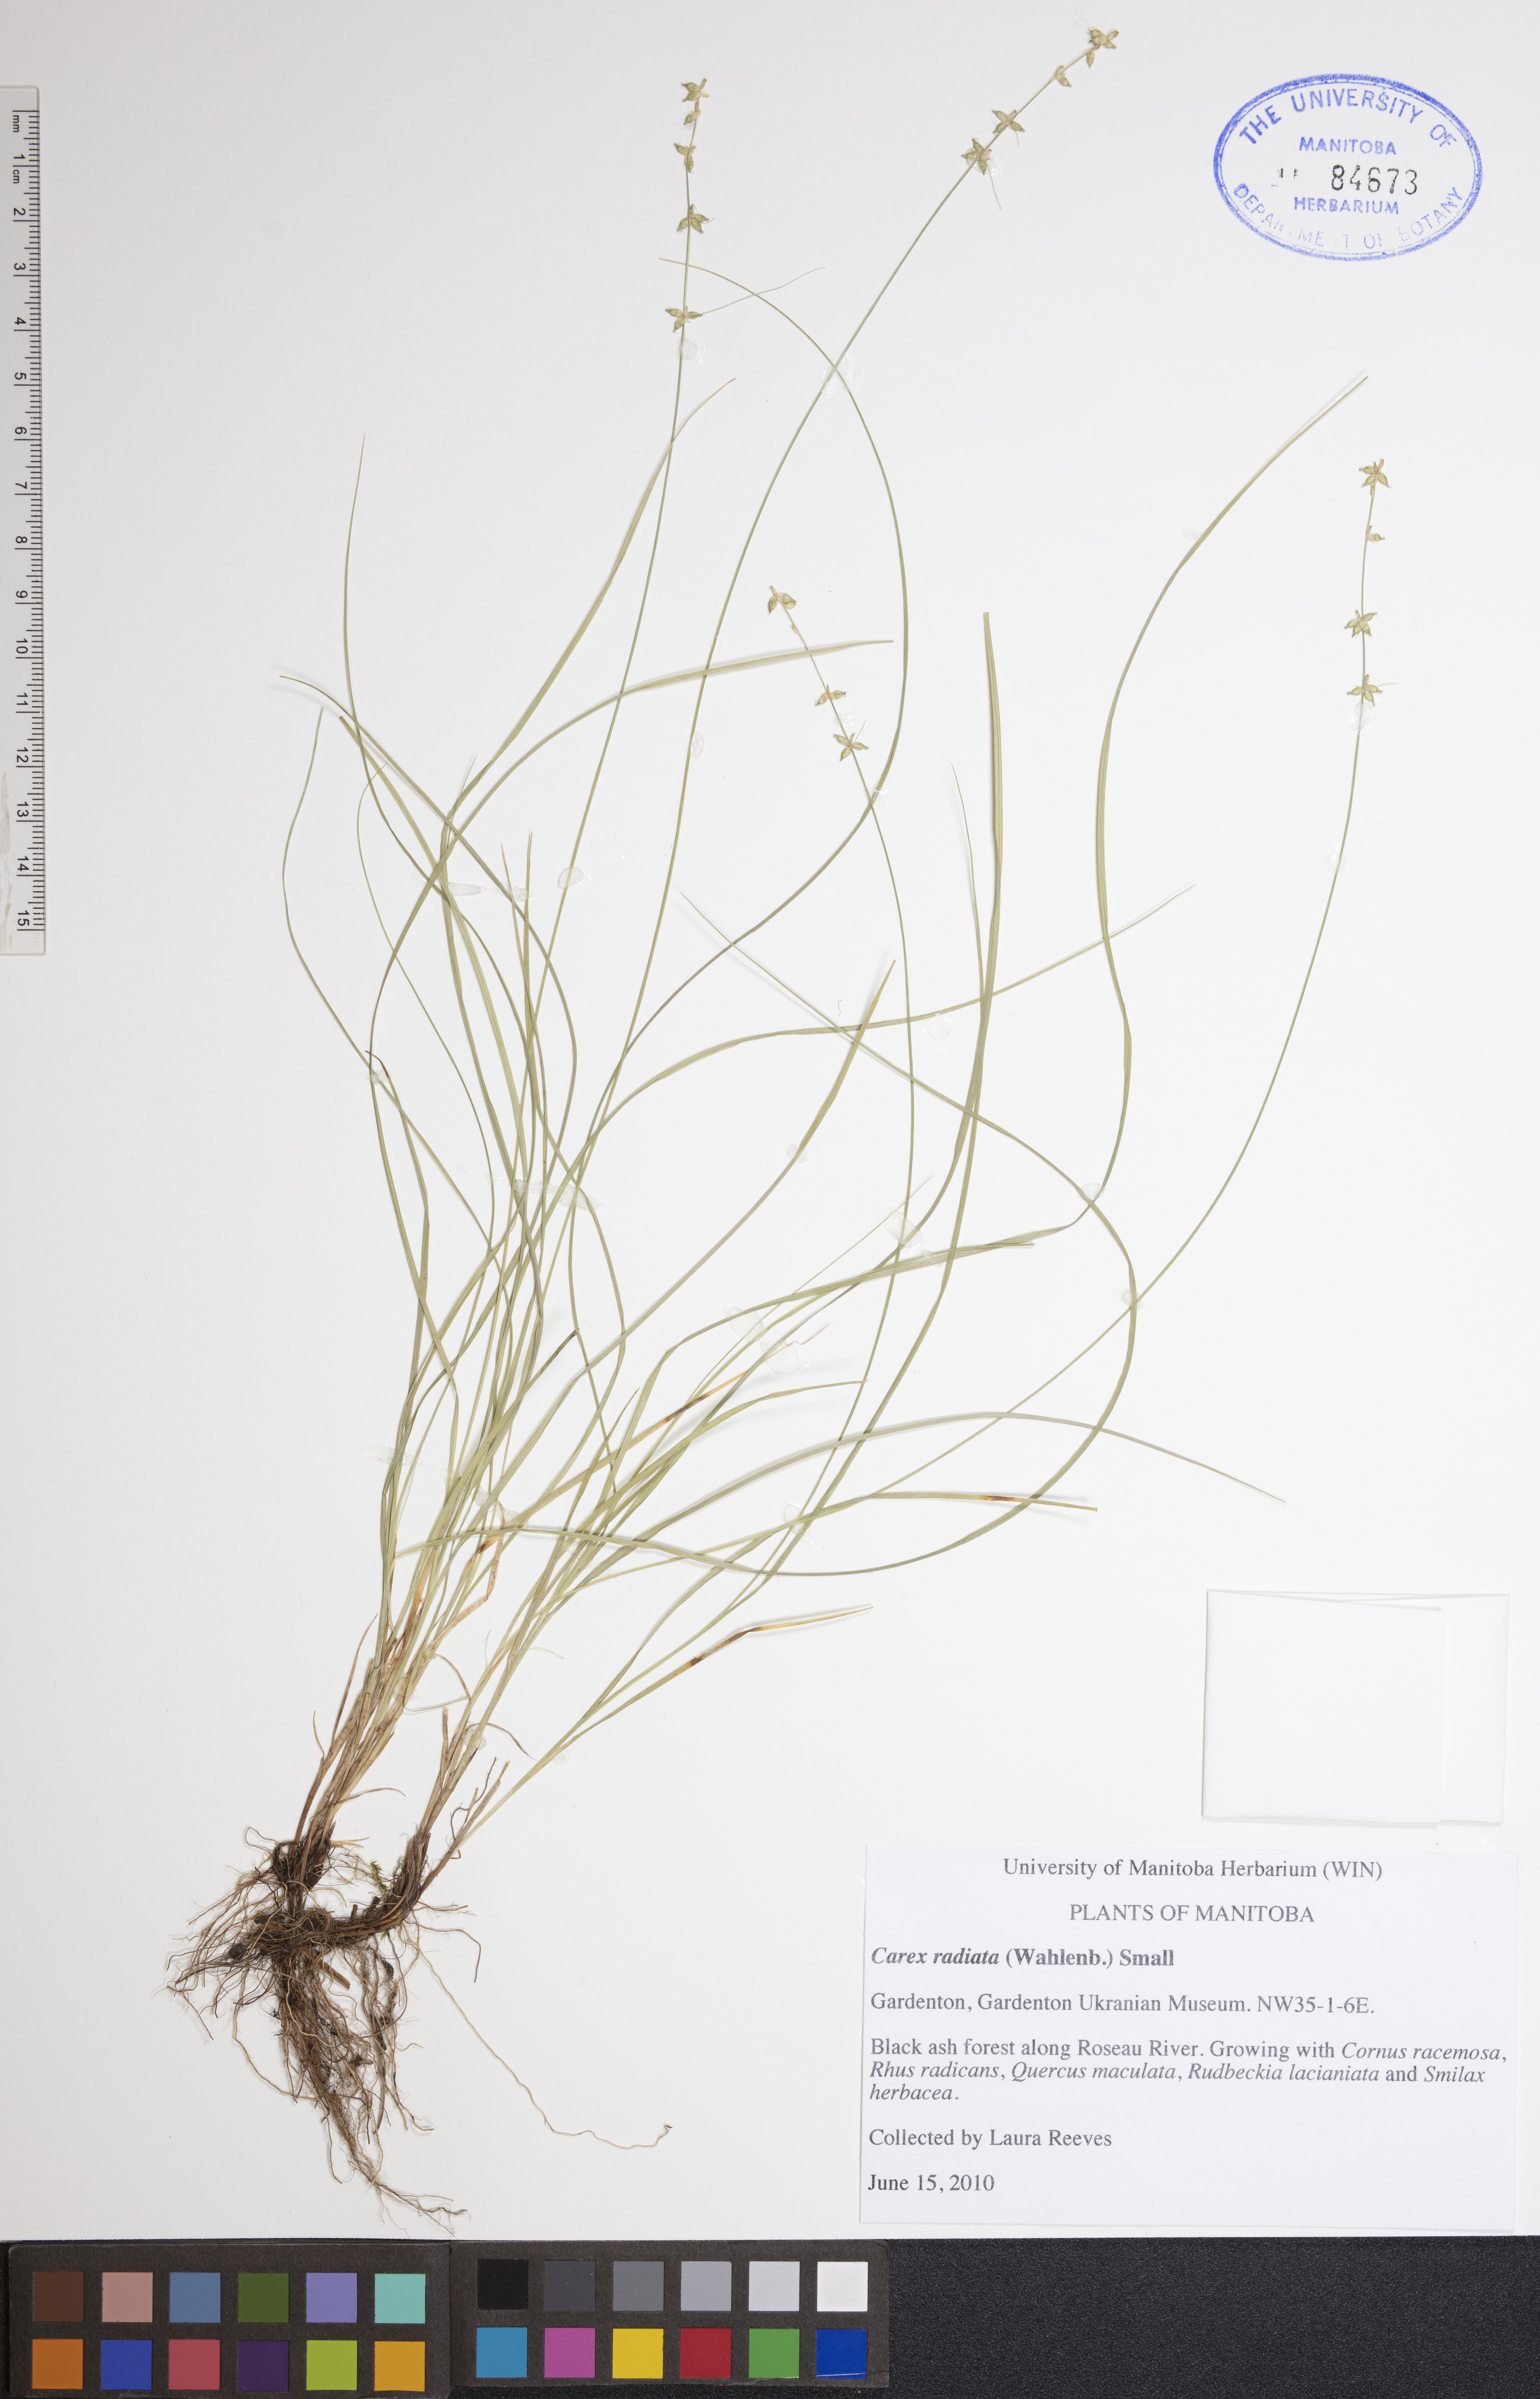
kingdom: Plantae
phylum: Tracheophyta
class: Liliopsida
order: Poales
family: Cyperaceae
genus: Carex
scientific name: Carex radiata
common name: Eastern star sedge
